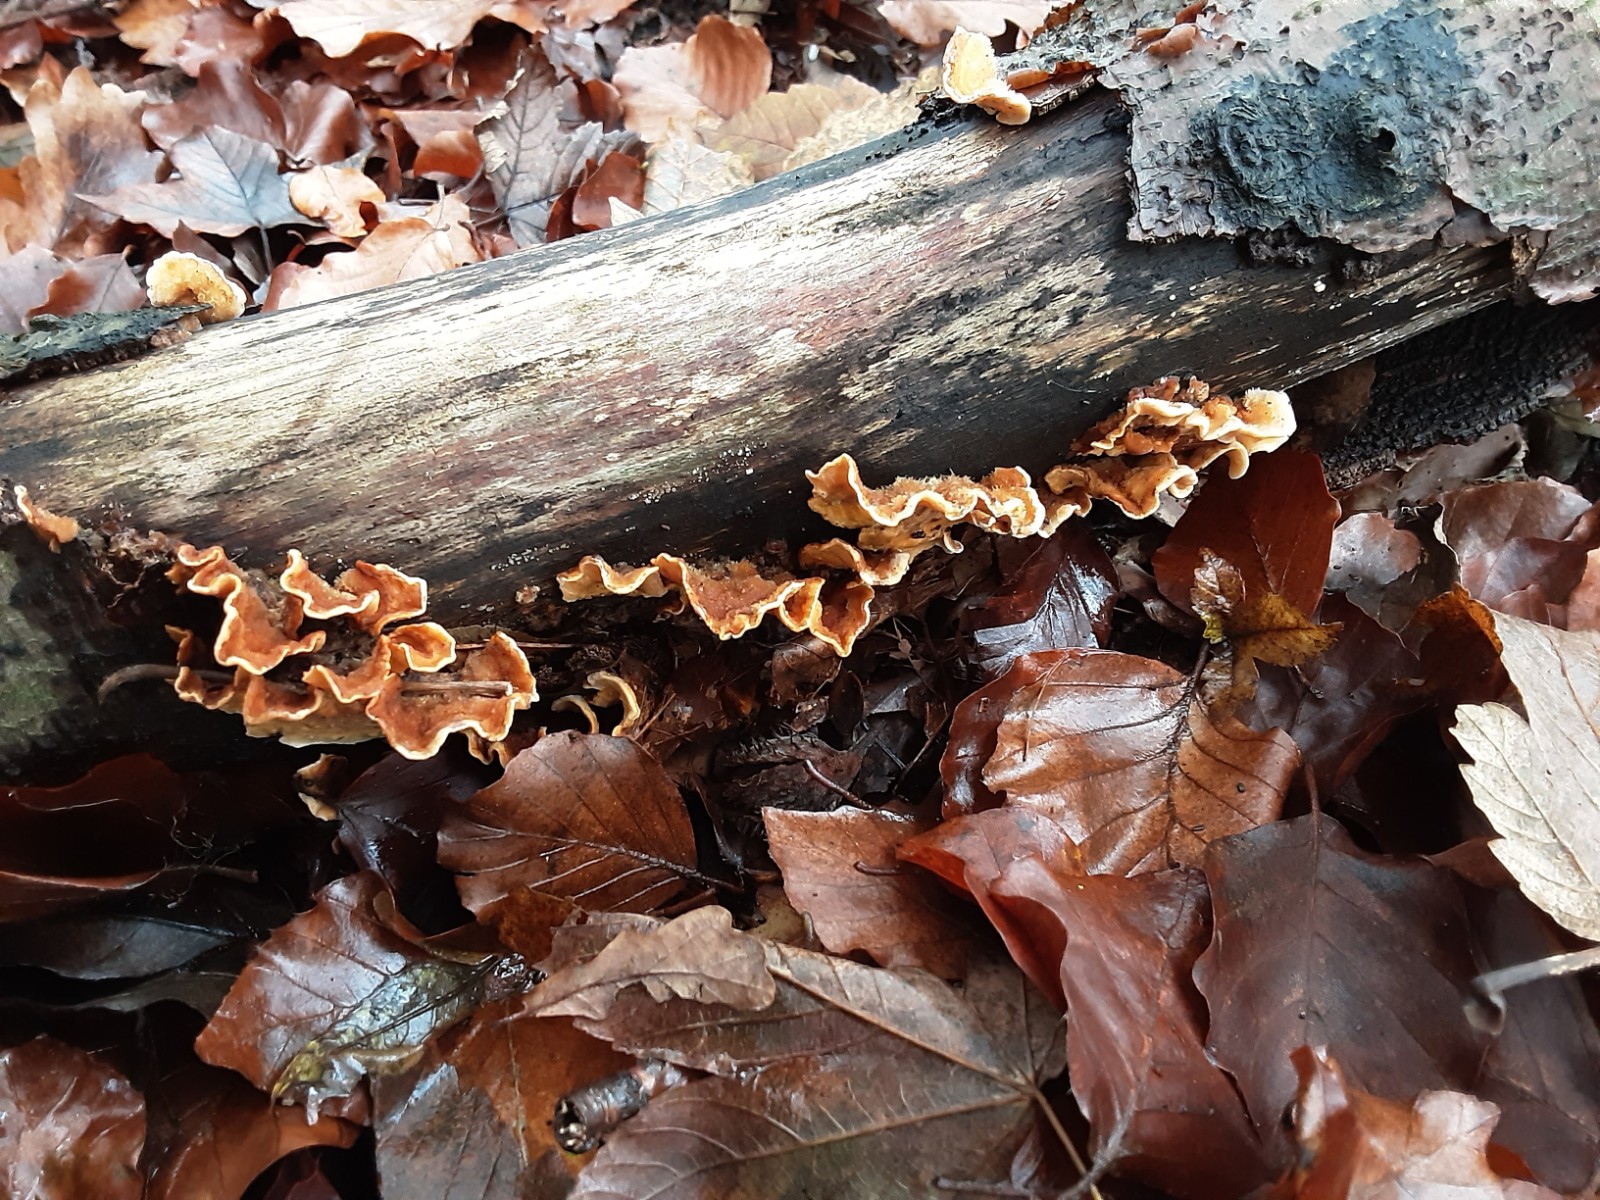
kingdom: Fungi
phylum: Basidiomycota
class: Agaricomycetes
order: Russulales
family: Stereaceae
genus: Stereum
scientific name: Stereum hirsutum
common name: håret lædersvamp
